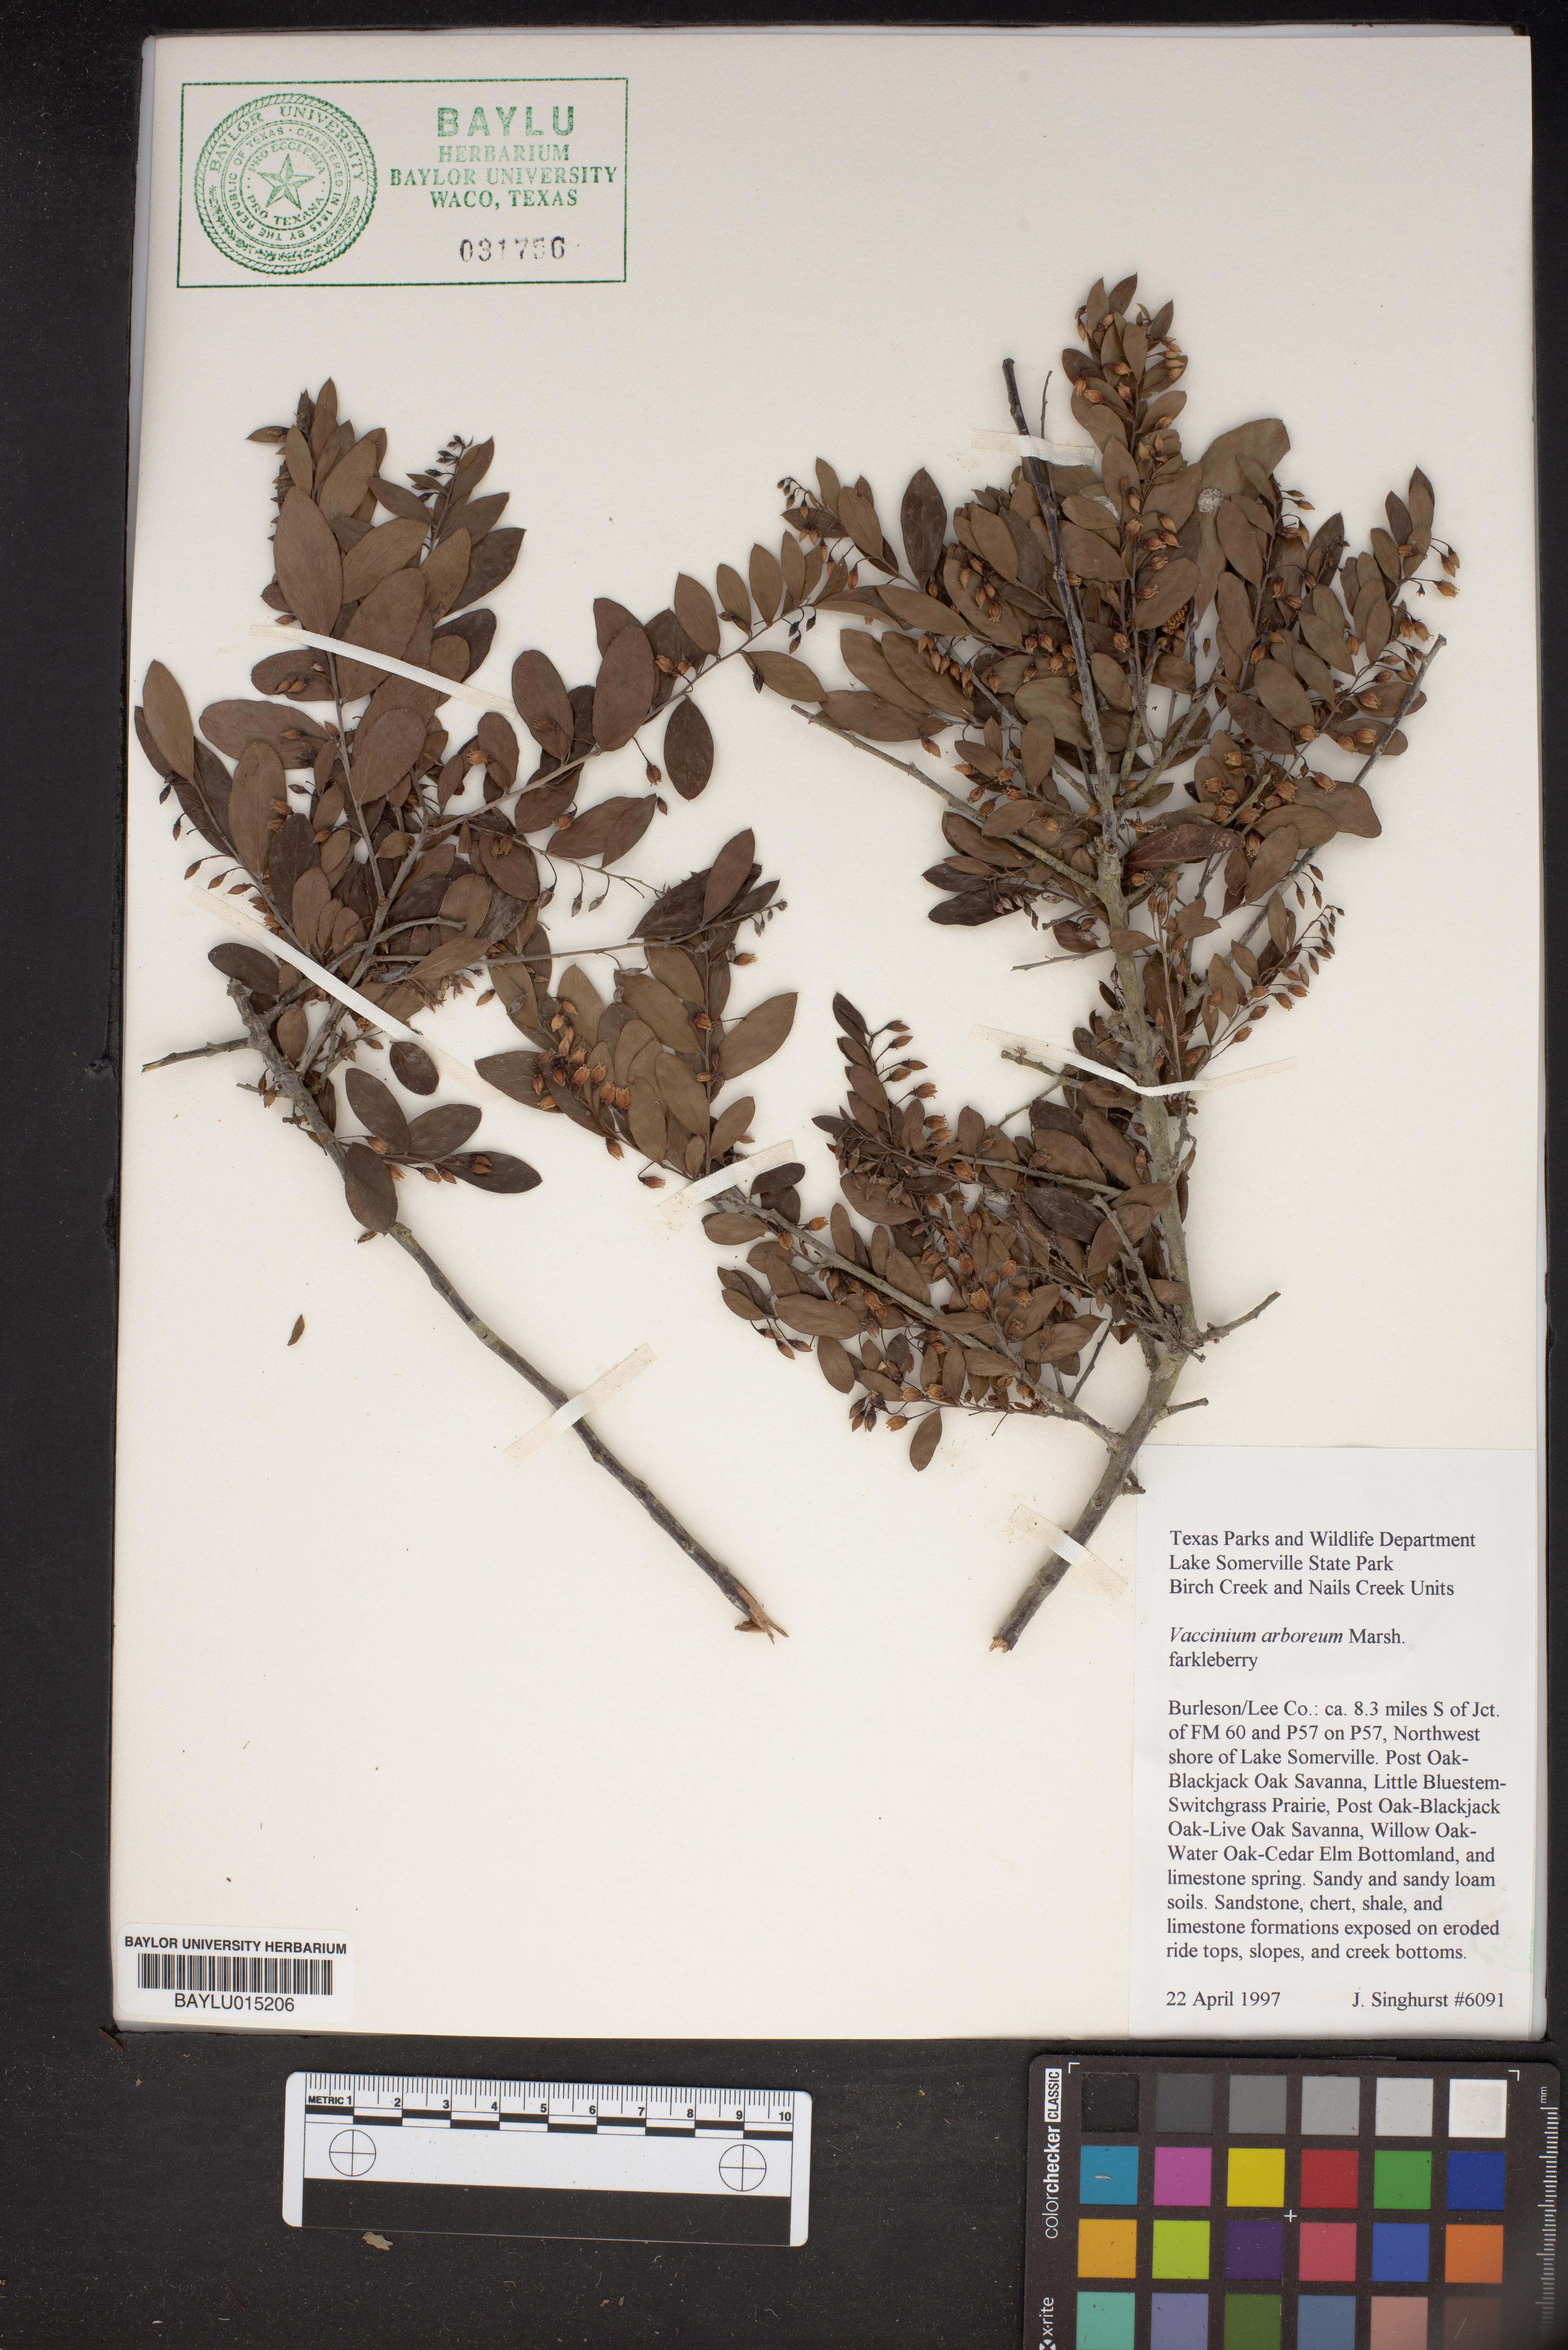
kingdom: Plantae
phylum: Tracheophyta
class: Magnoliopsida
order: Ericales
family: Ericaceae
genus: Vaccinium
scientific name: Vaccinium arboreum
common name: Farkleberry
